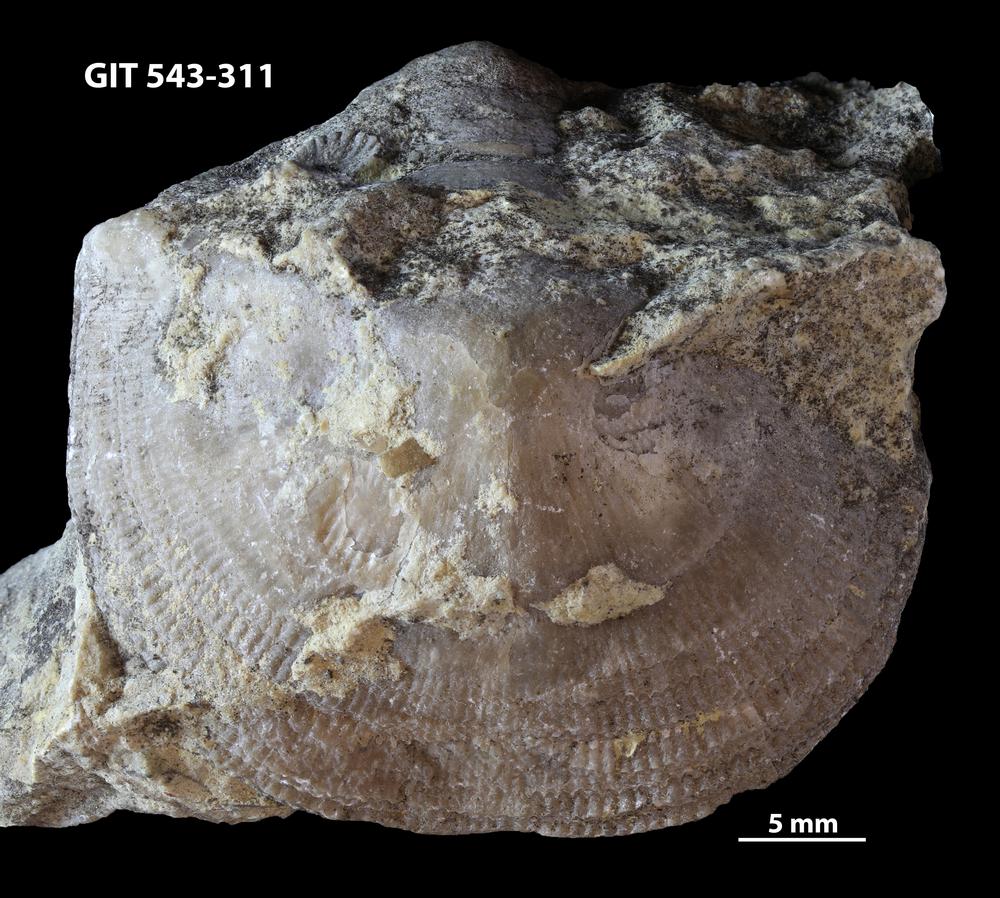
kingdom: Animalia
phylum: Brachiopoda
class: Rhynchonellata
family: Clitambonitidae
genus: Ilmarinia
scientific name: Ilmarinia dimorpha
